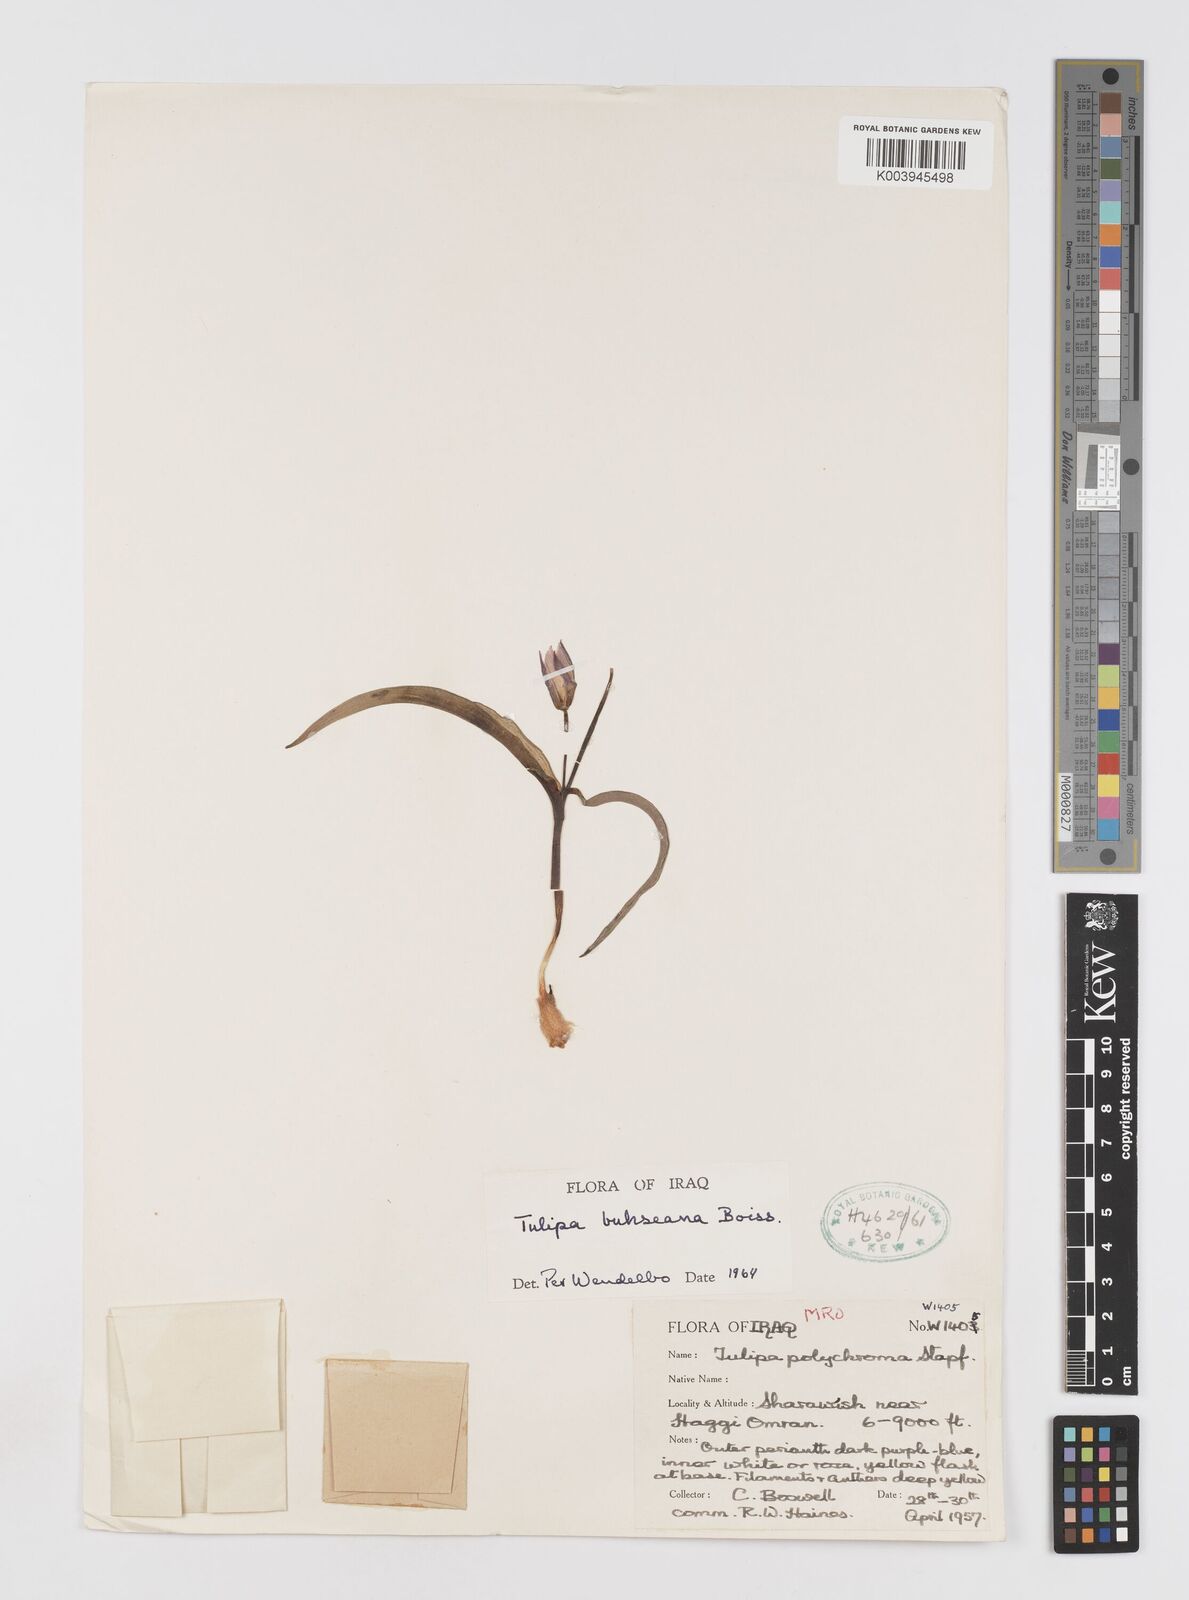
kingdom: Plantae
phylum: Tracheophyta
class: Liliopsida
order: Liliales
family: Liliaceae
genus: Tulipa
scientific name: Tulipa biflora
